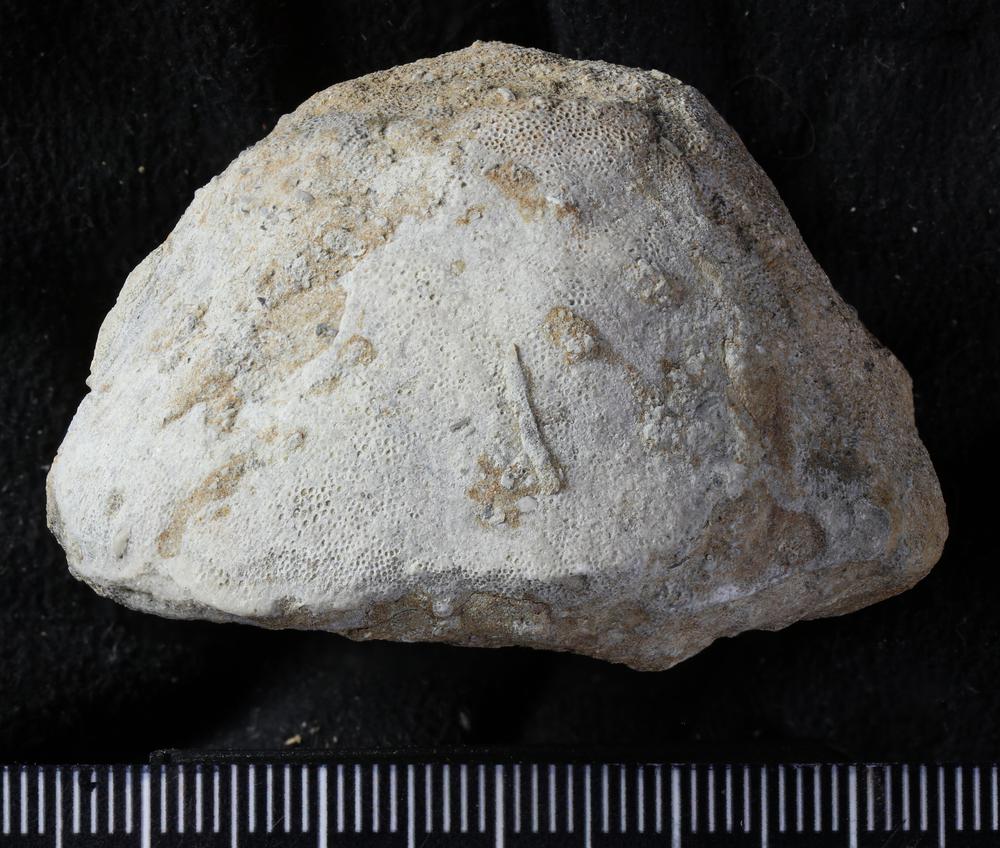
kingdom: Animalia
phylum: Bryozoa
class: Stenolaemata
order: Trepostomatida
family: Diplotrypidae
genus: Diplotrypa
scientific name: Diplotrypa petropolitana
